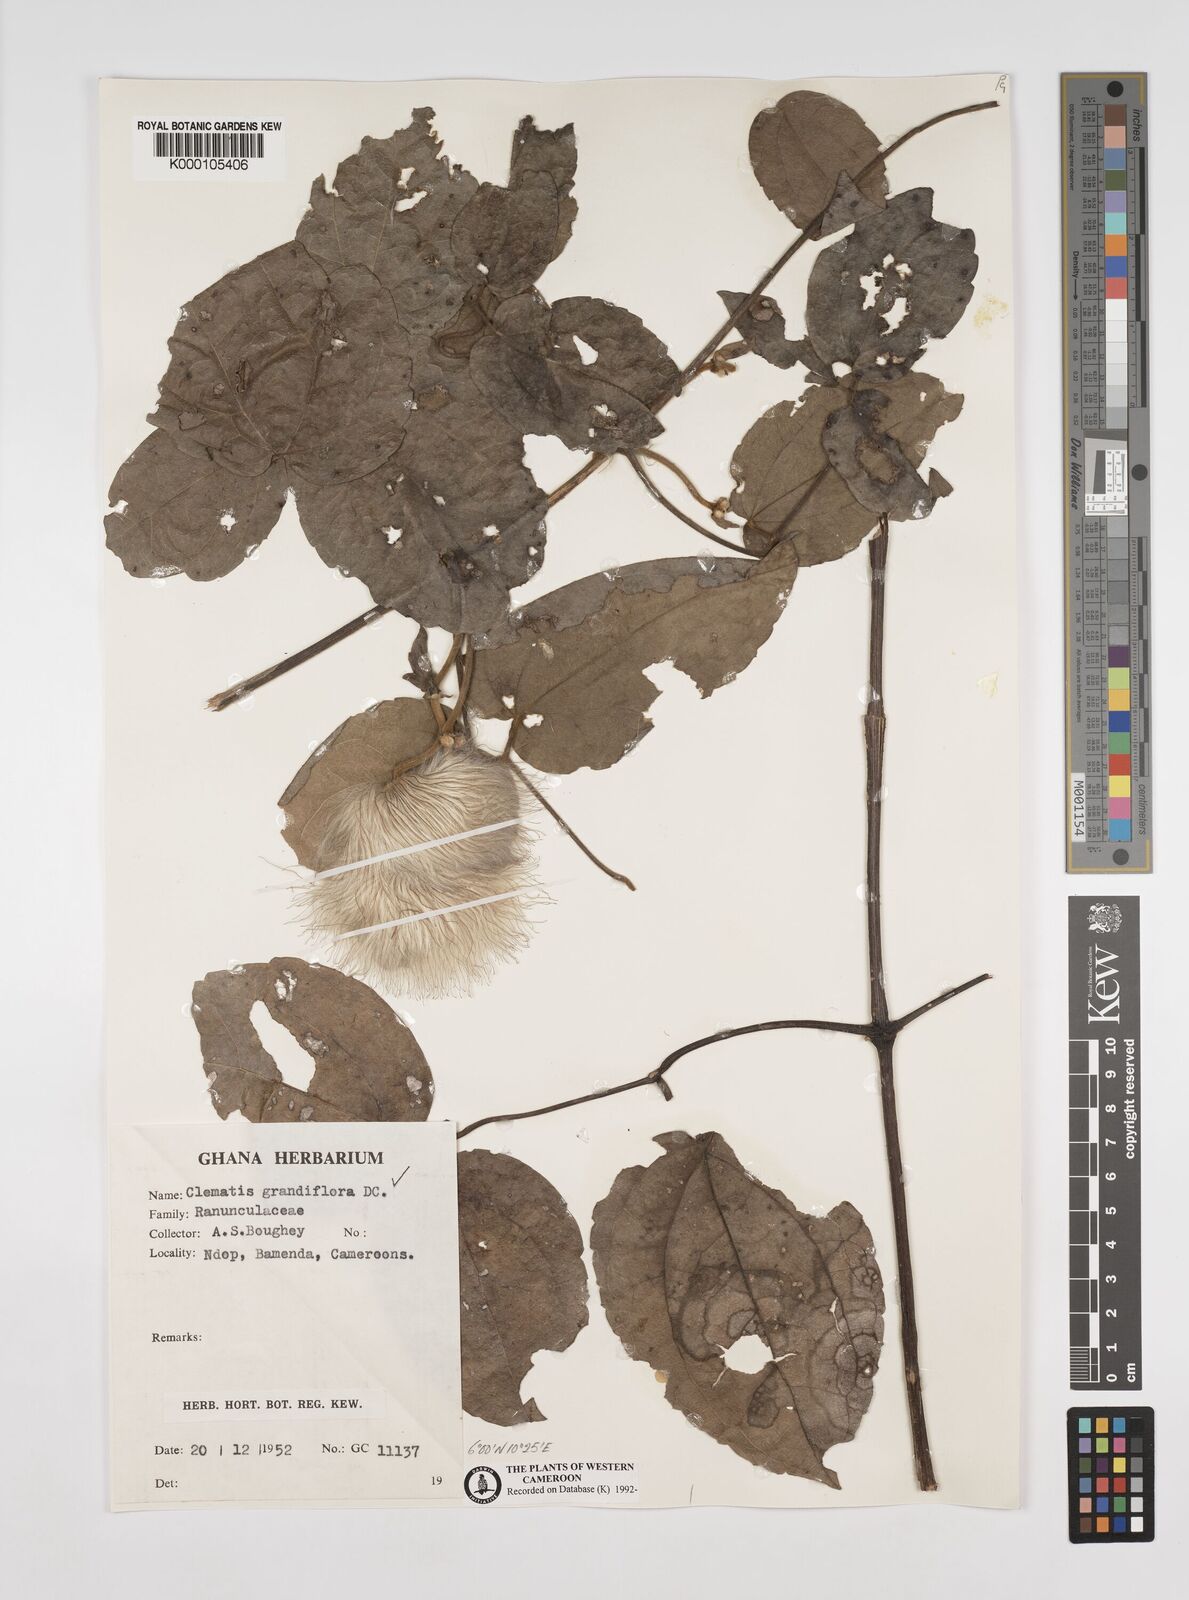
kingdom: Plantae
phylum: Tracheophyta
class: Magnoliopsida
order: Ranunculales
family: Ranunculaceae
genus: Clematis
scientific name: Clematis grandiflora
